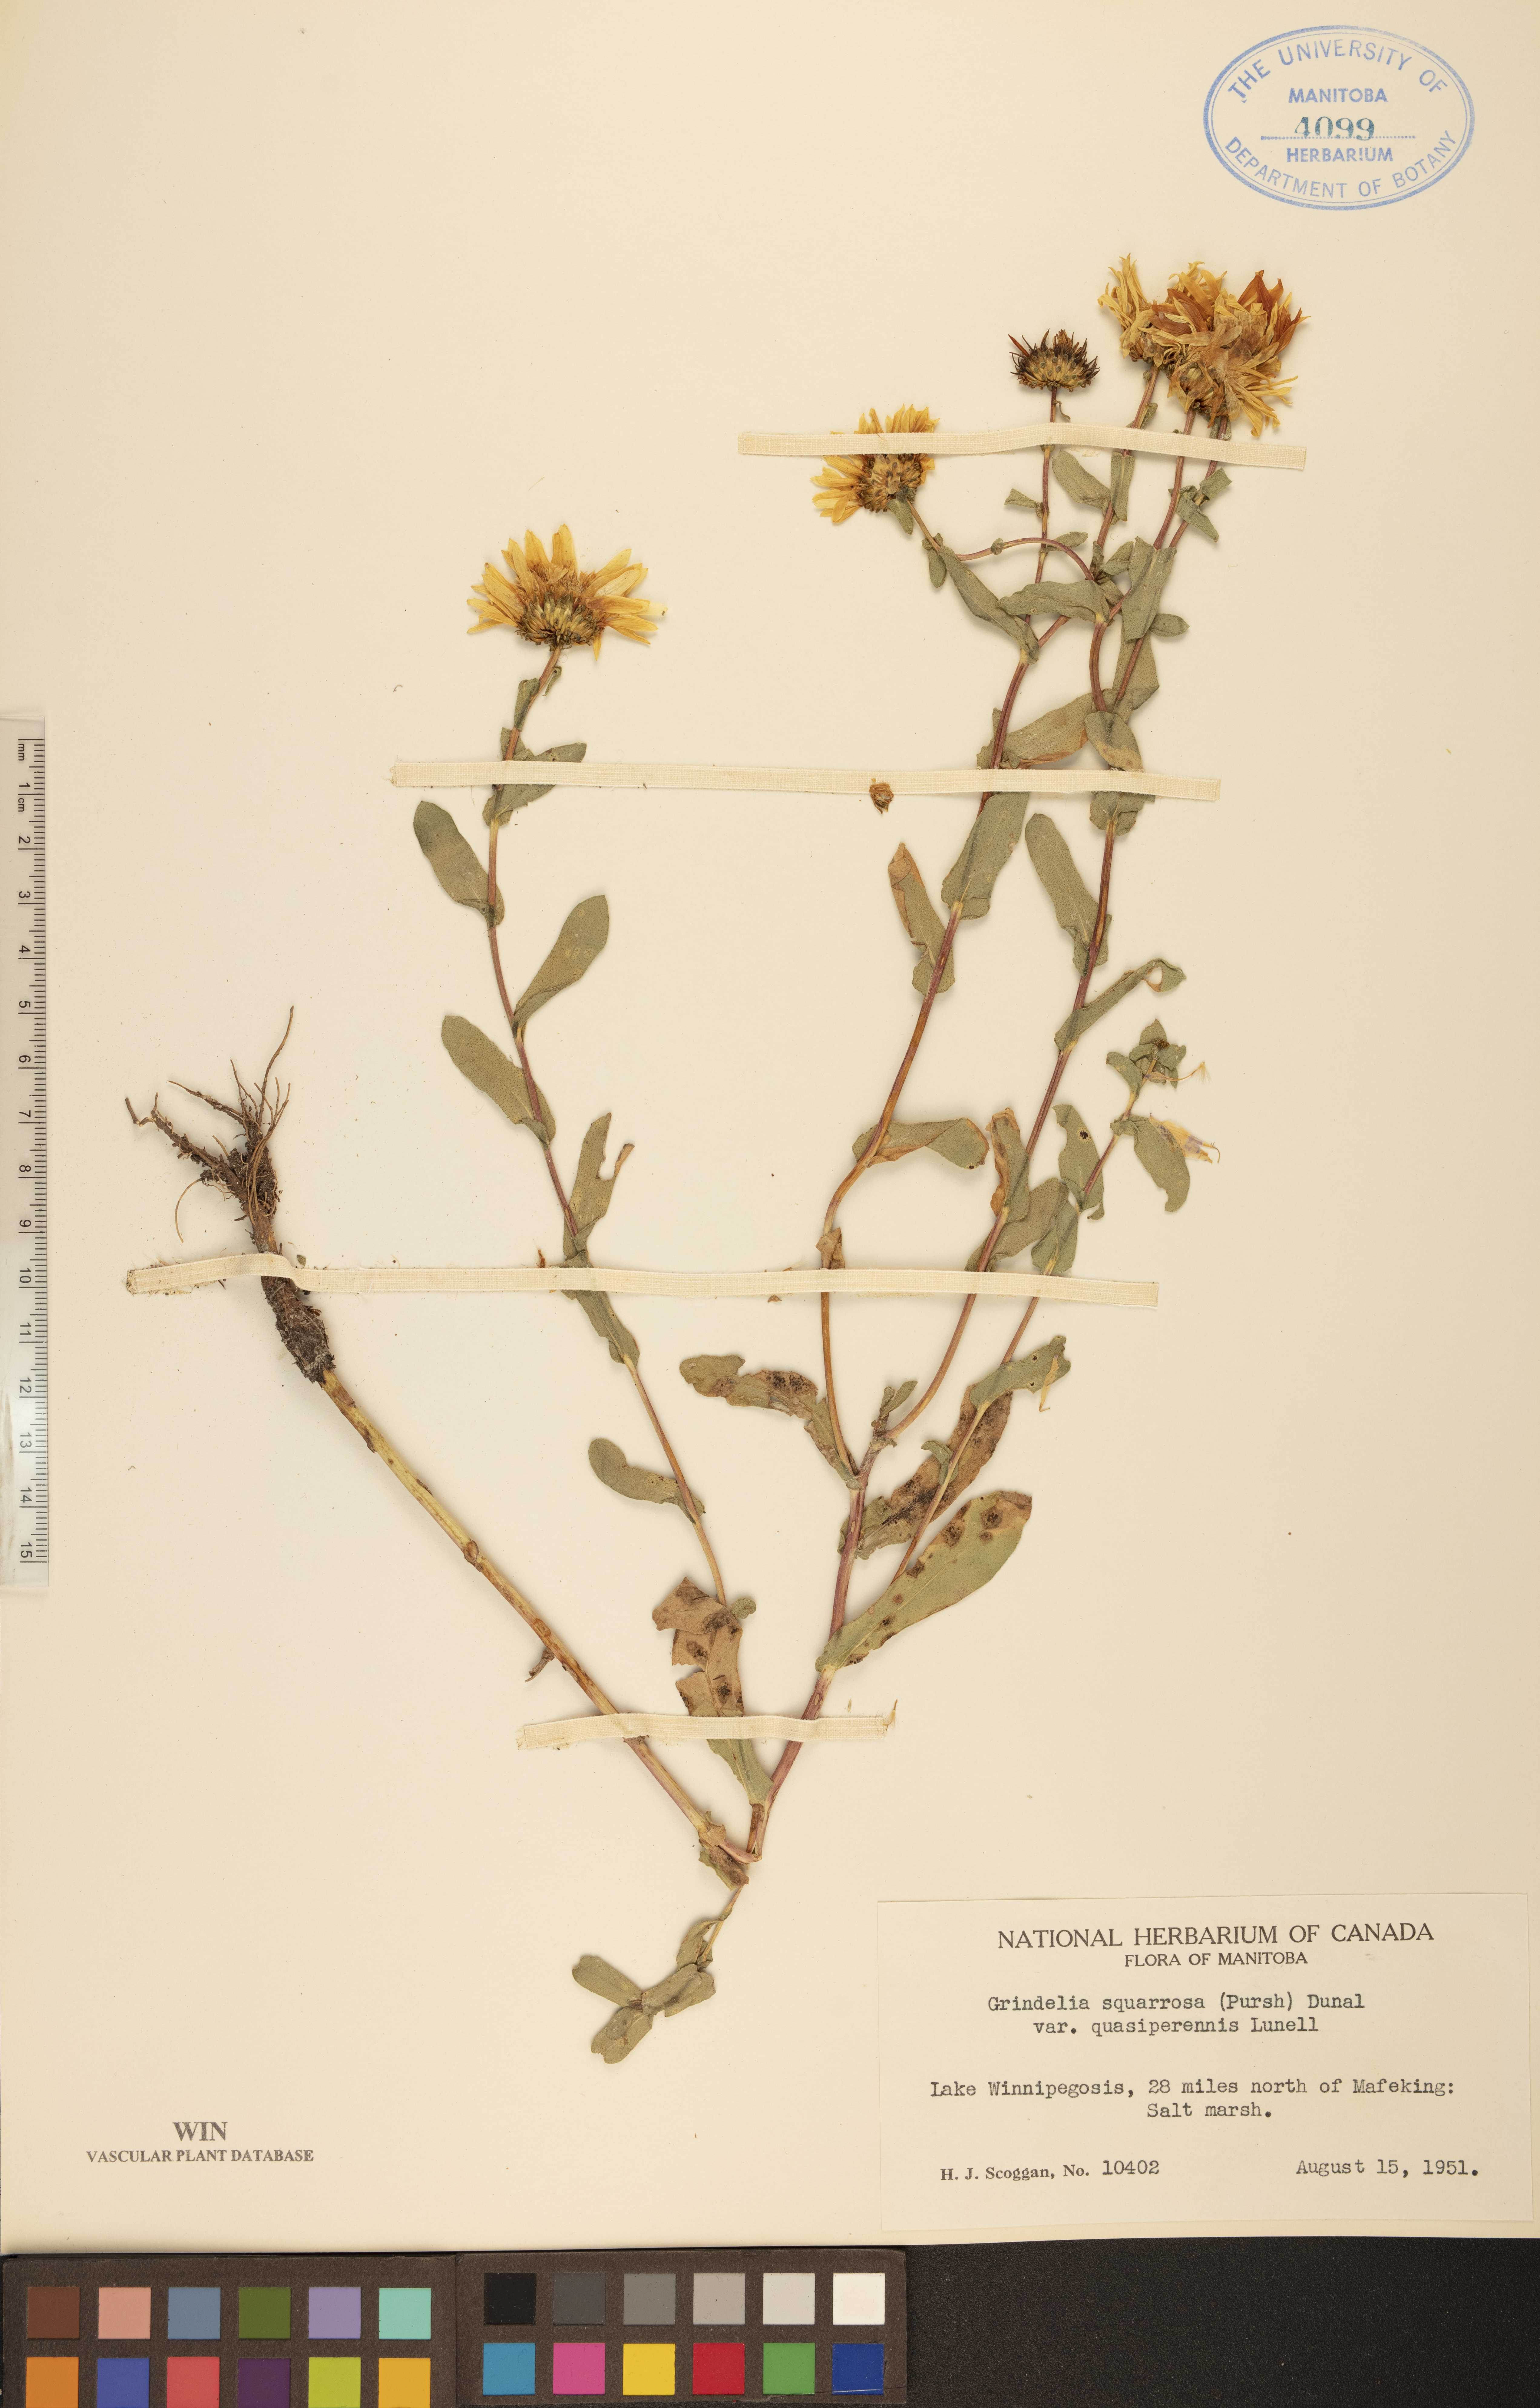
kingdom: Plantae
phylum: Tracheophyta
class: Magnoliopsida
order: Asterales
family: Asteraceae
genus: Grindelia
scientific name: Grindelia hirsutula
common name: Hairy gumweed
